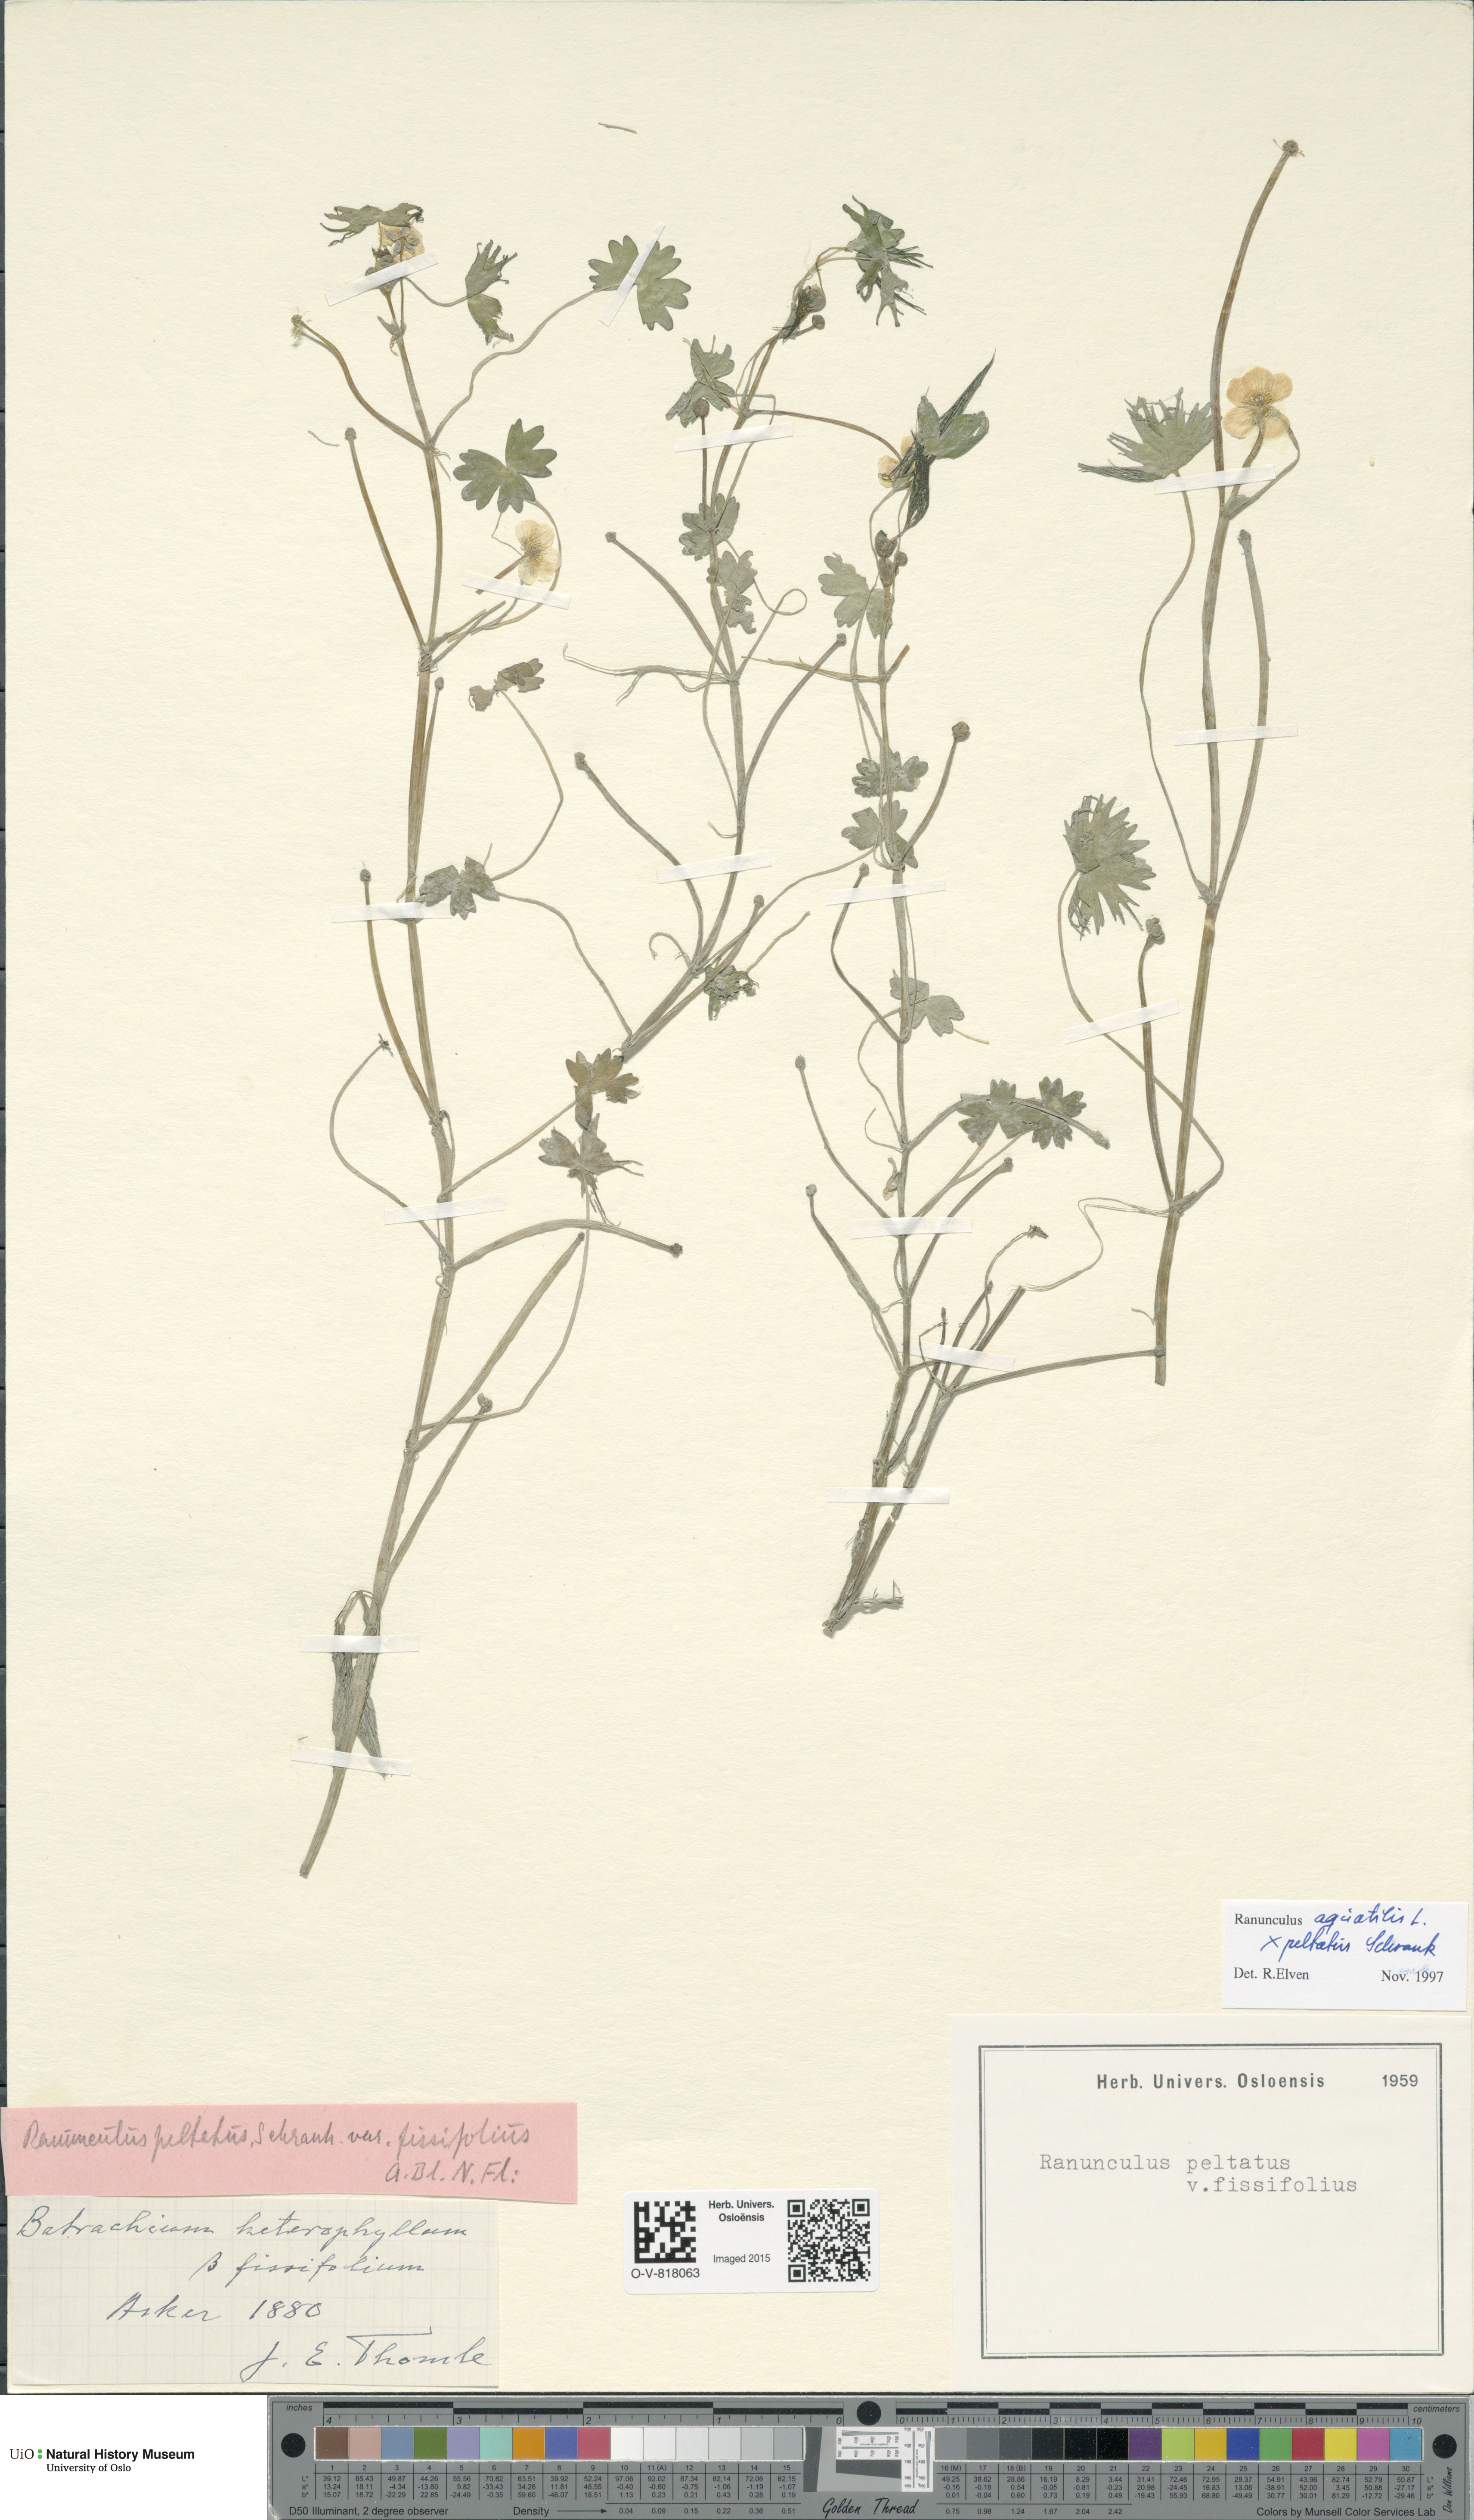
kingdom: Plantae
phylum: Tracheophyta
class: Magnoliopsida
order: Ranunculales
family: Ranunculaceae
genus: Ranunculus
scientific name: Ranunculus
